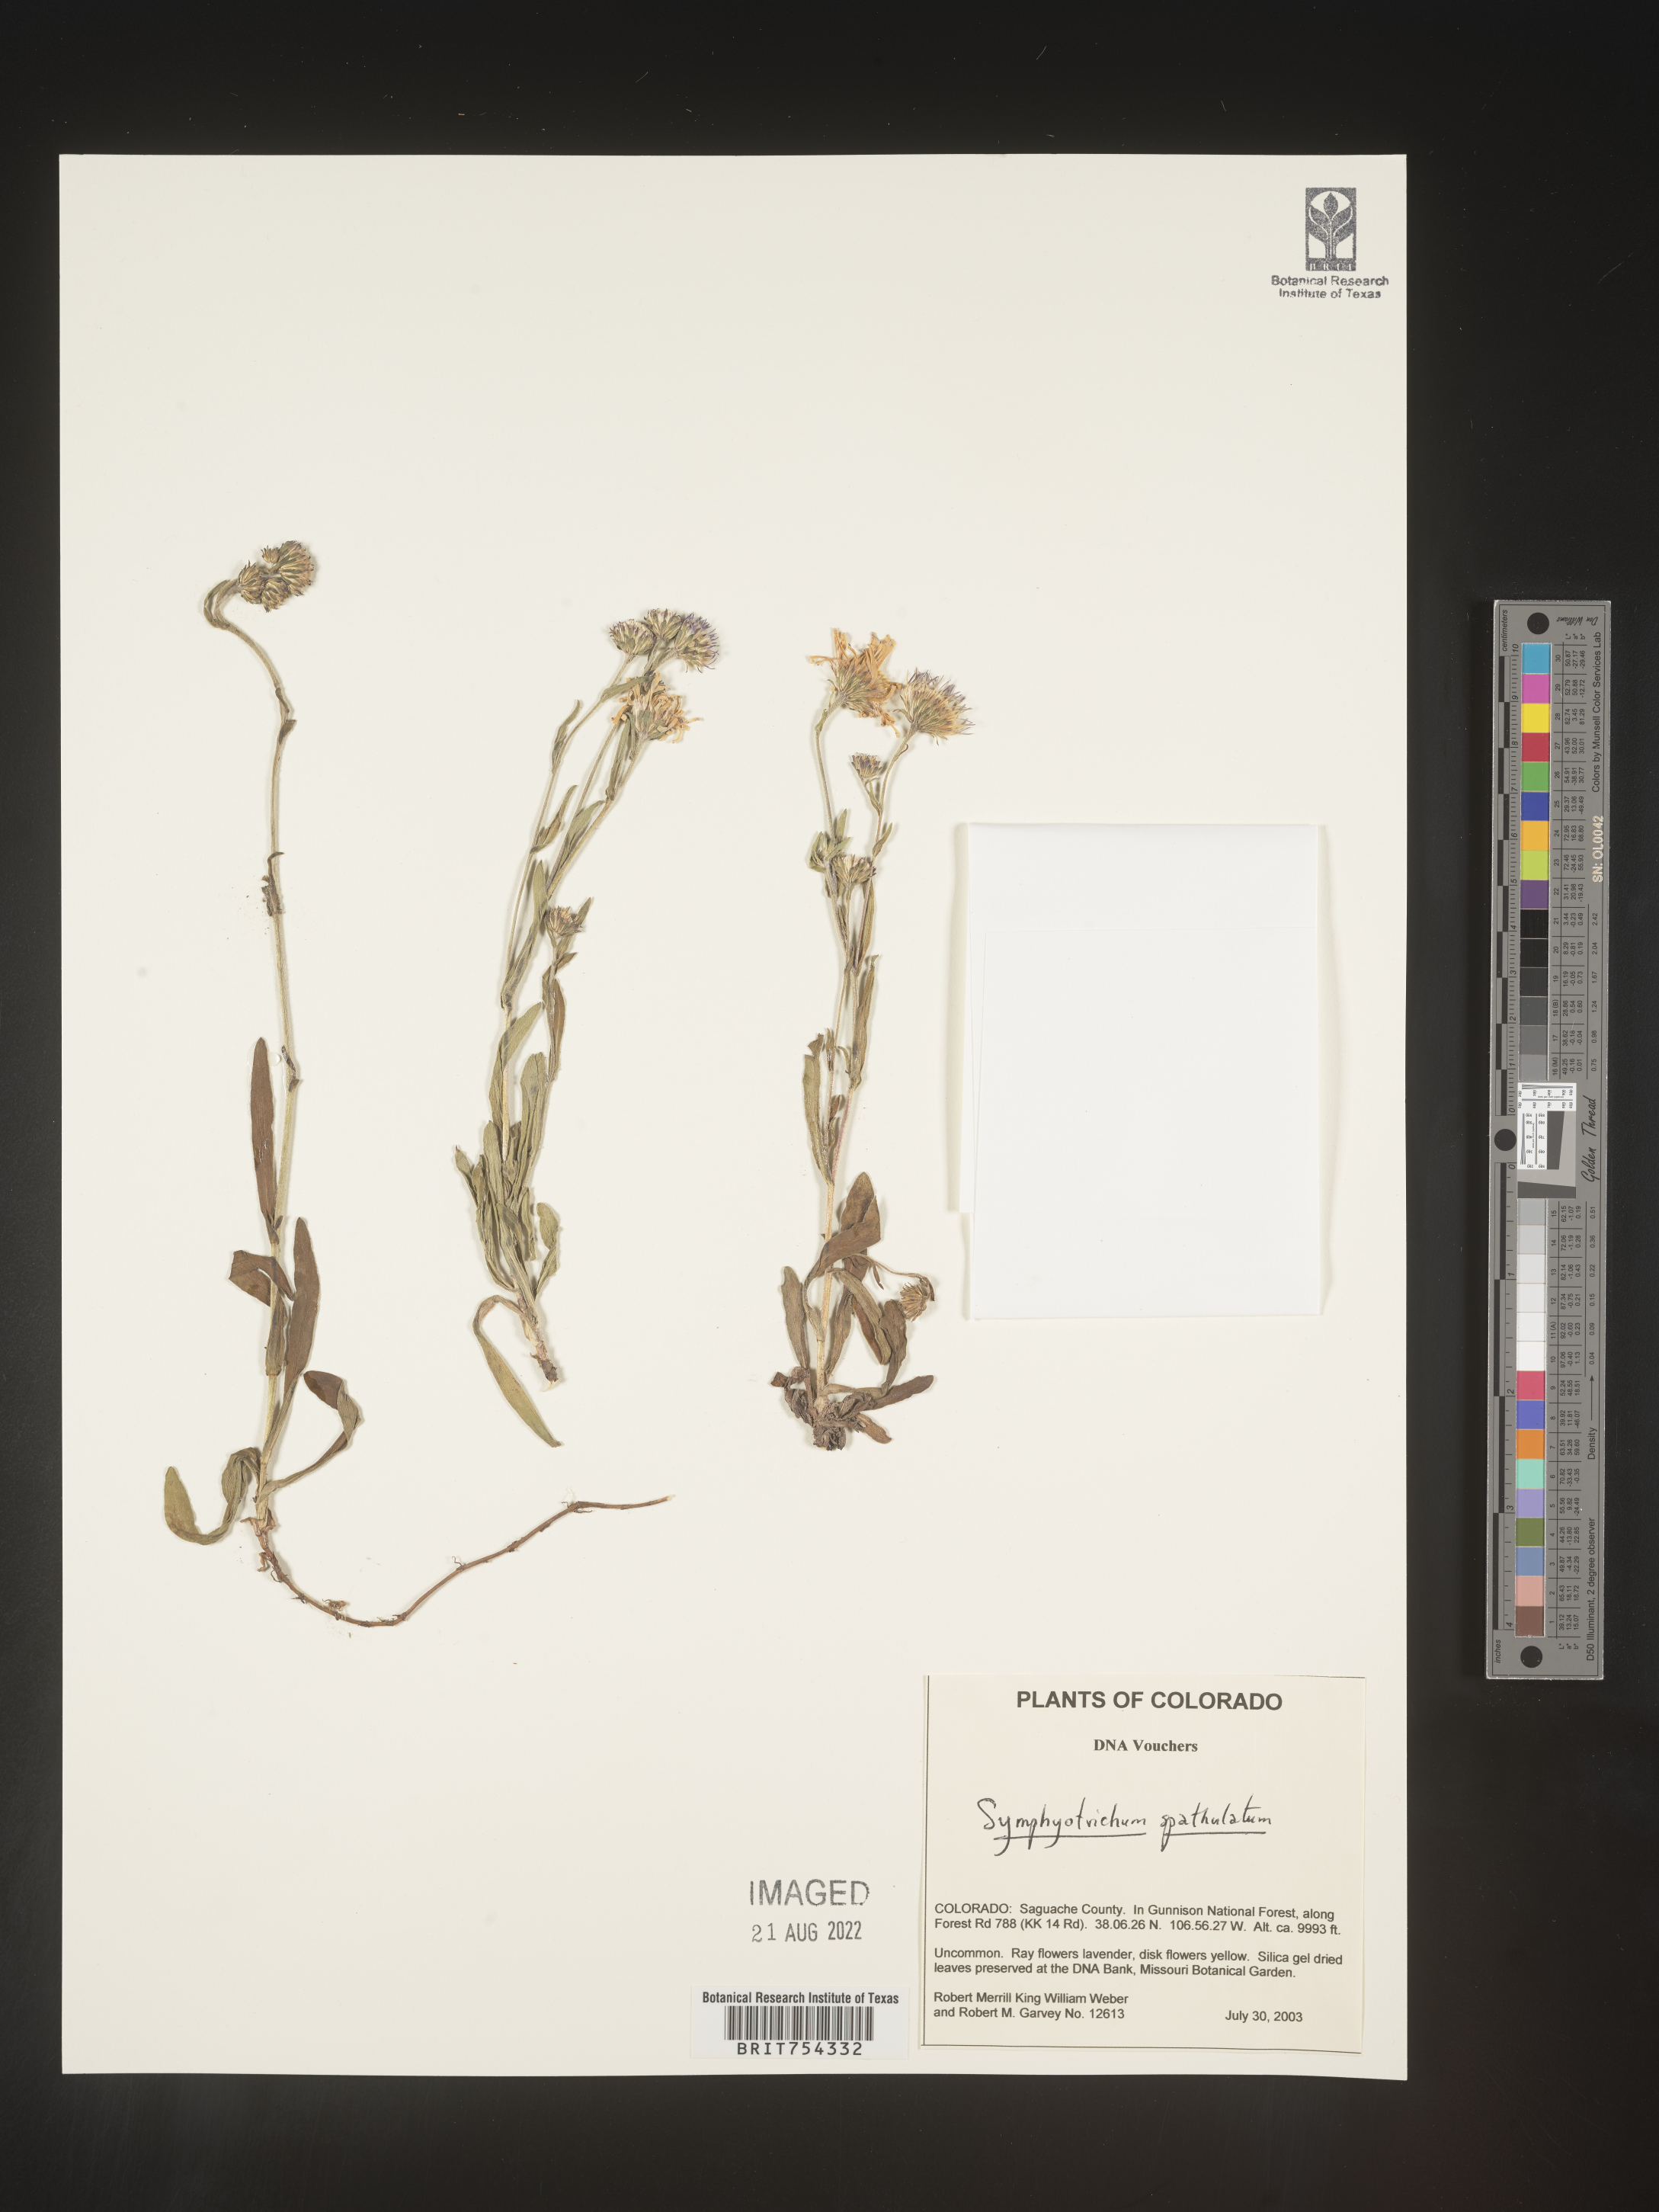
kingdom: Plantae
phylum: Tracheophyta
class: Magnoliopsida
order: Asterales
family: Asteraceae
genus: Symphyotrichum
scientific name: Symphyotrichum spathulatum
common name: Western mountain aster
